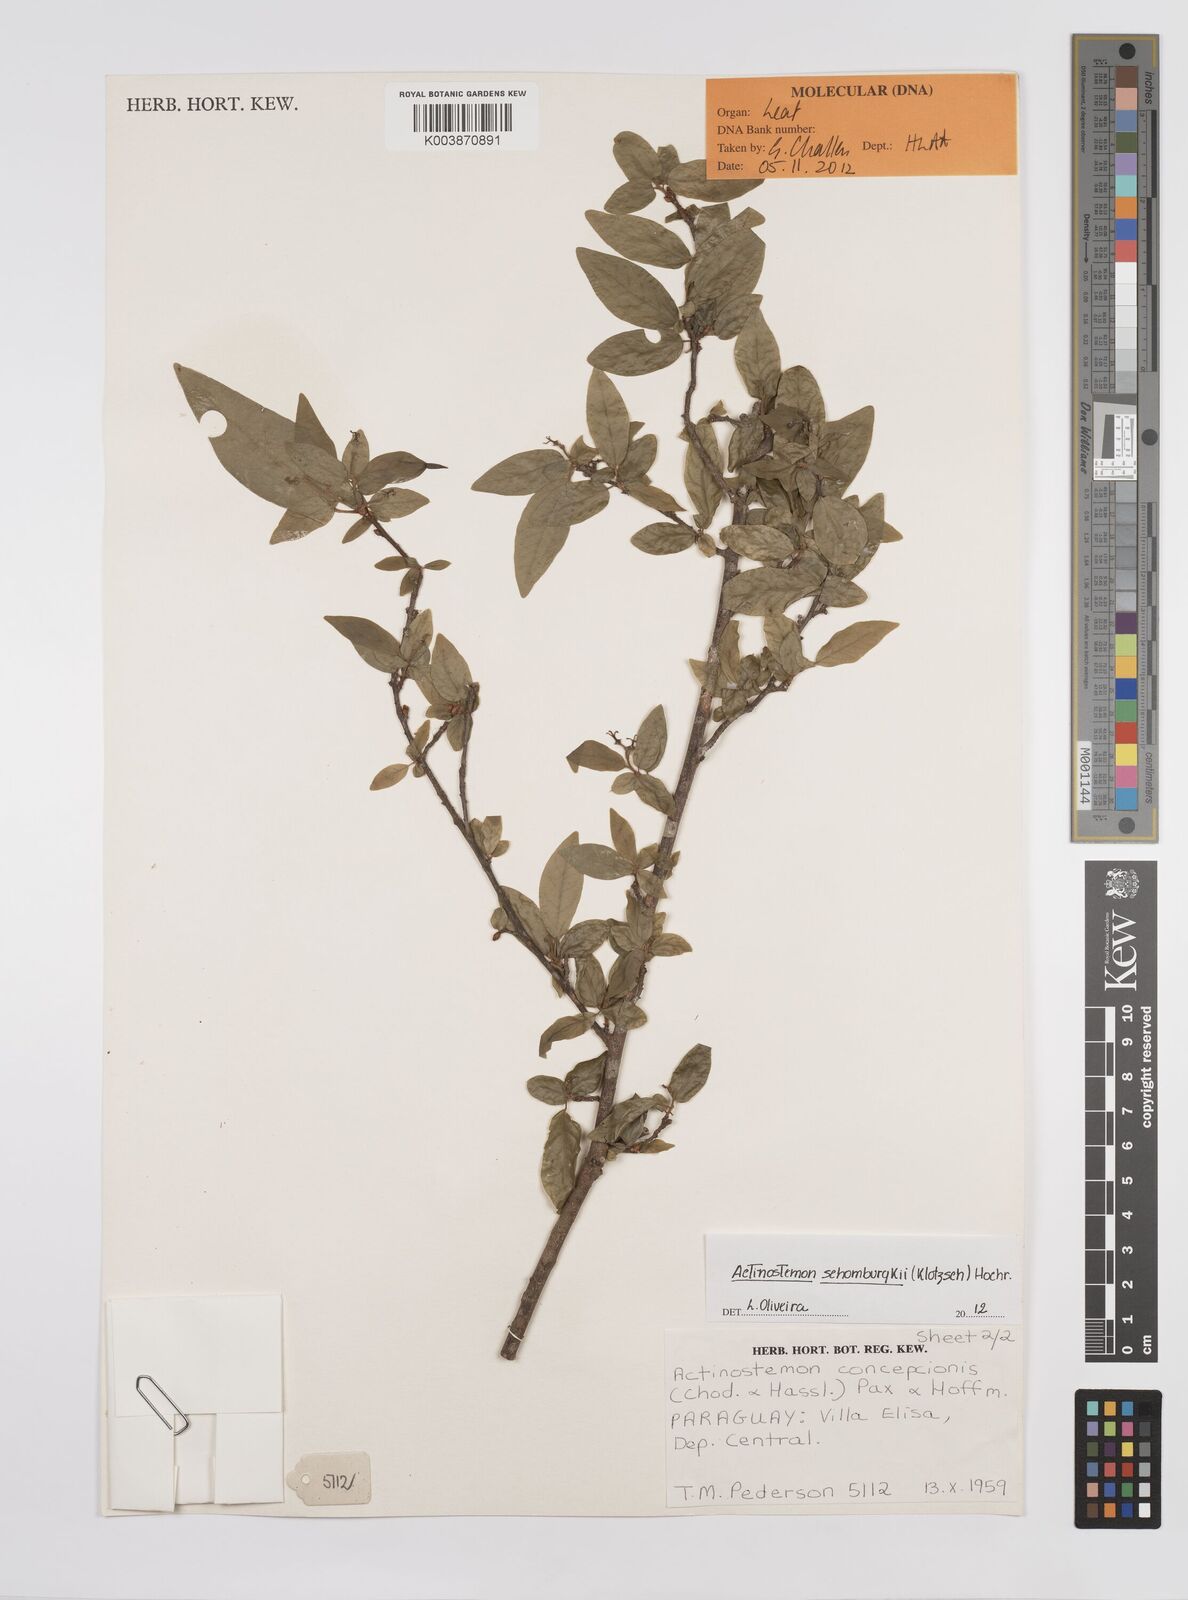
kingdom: Plantae
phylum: Tracheophyta
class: Magnoliopsida
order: Malpighiales
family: Euphorbiaceae
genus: Actinostemon
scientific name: Actinostemon schomburgkii
